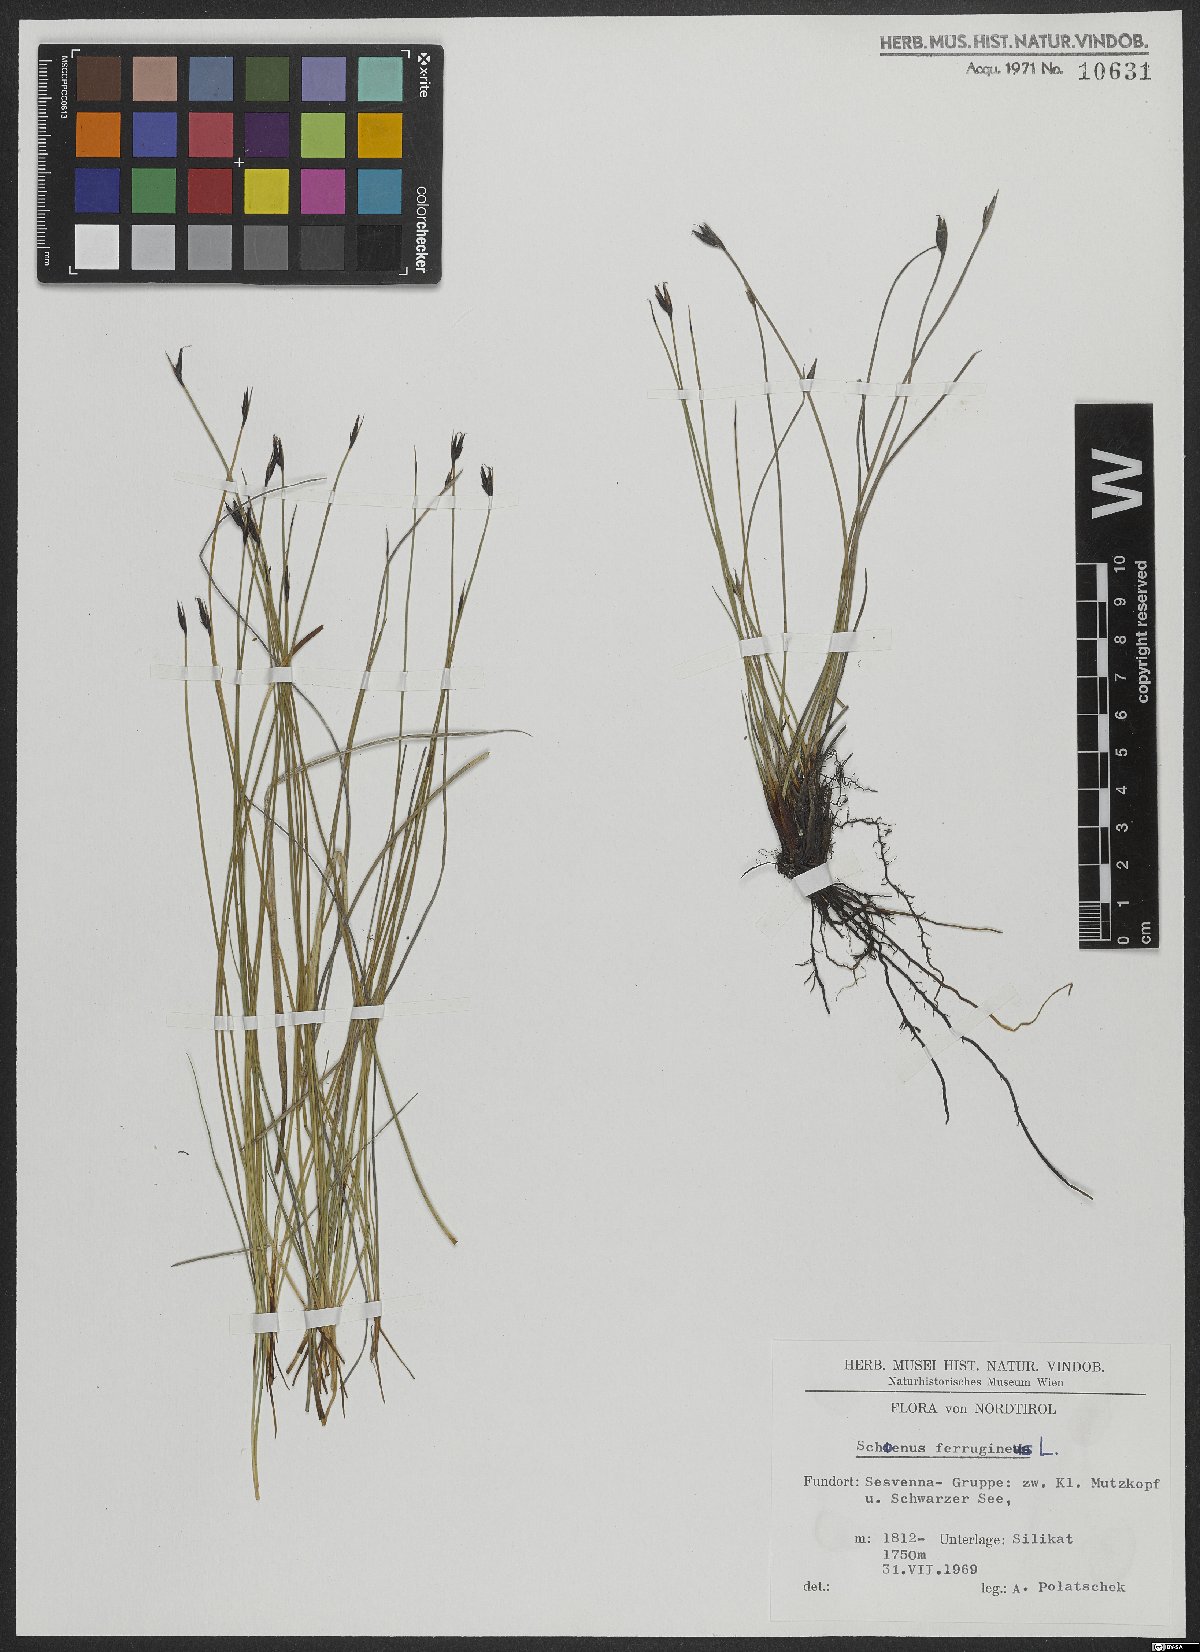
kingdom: Plantae
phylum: Tracheophyta
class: Liliopsida
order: Poales
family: Cyperaceae
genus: Schoenus
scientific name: Schoenus ferrugineus
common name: Brown bog-rush
